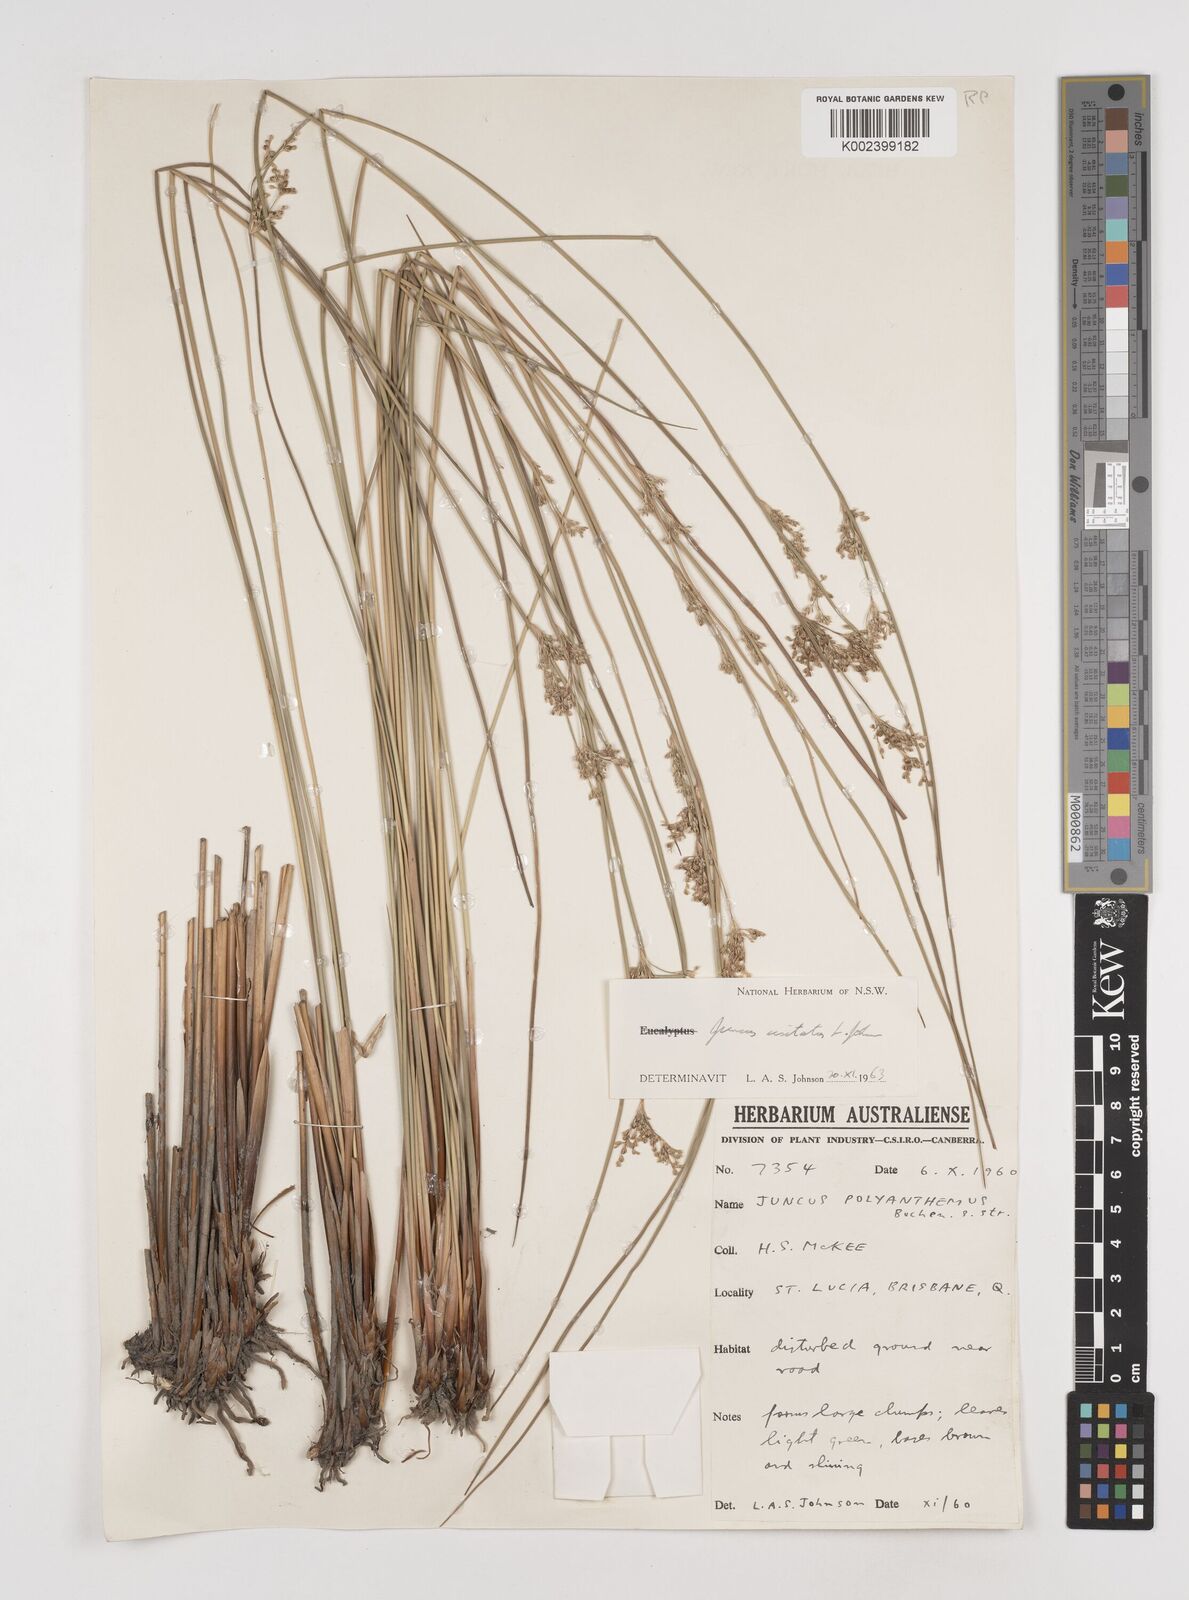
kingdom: Plantae
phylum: Tracheophyta
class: Liliopsida
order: Poales
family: Juncaceae
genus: Juncus
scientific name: Juncus usitatus
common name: Rush
